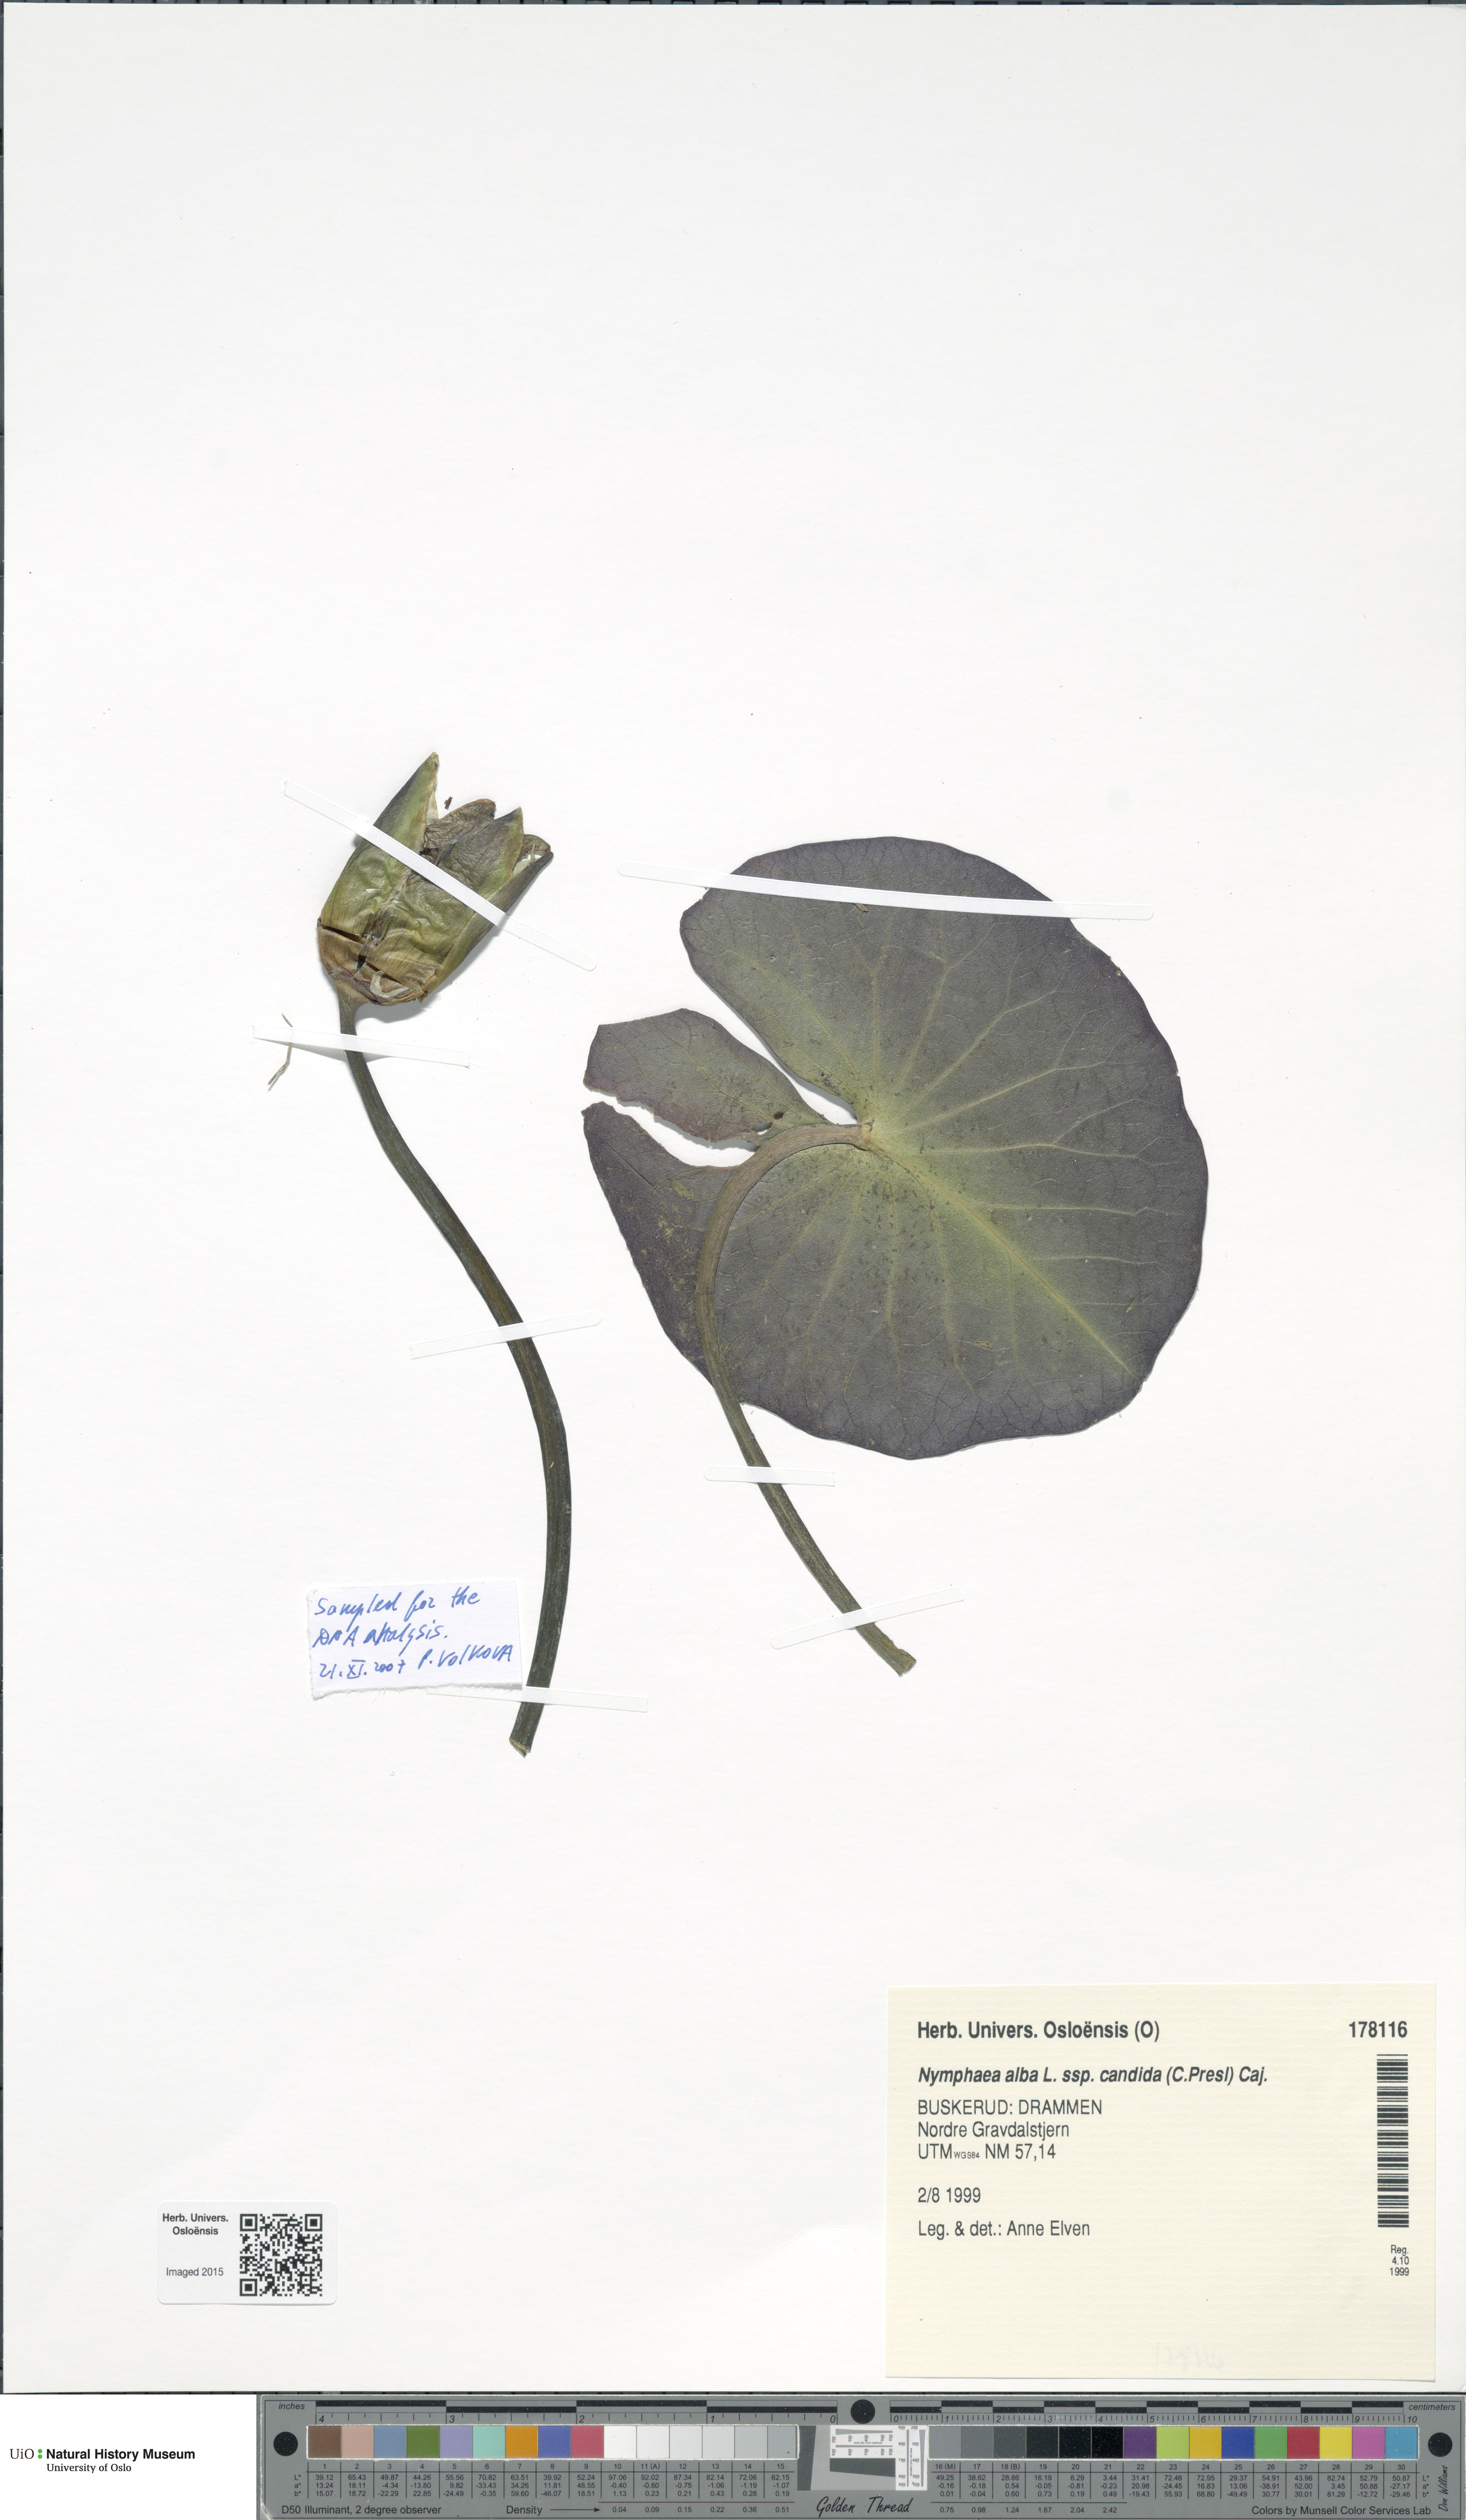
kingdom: Plantae
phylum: Tracheophyta
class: Magnoliopsida
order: Nymphaeales
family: Nymphaeaceae
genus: Nymphaea
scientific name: Nymphaea candida
